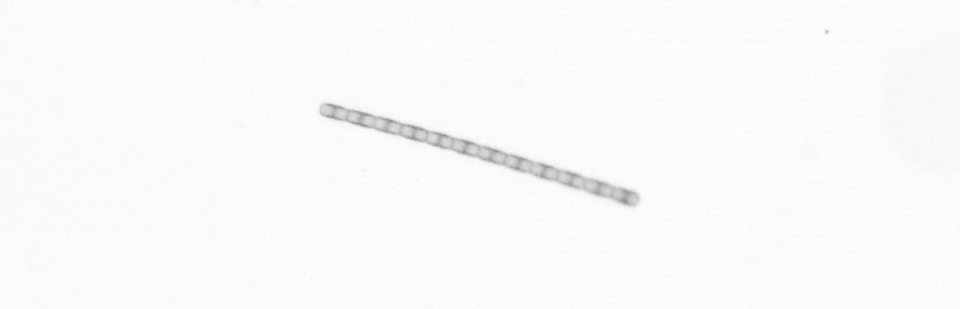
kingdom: Chromista
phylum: Ochrophyta
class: Bacillariophyceae
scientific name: Bacillariophyceae
